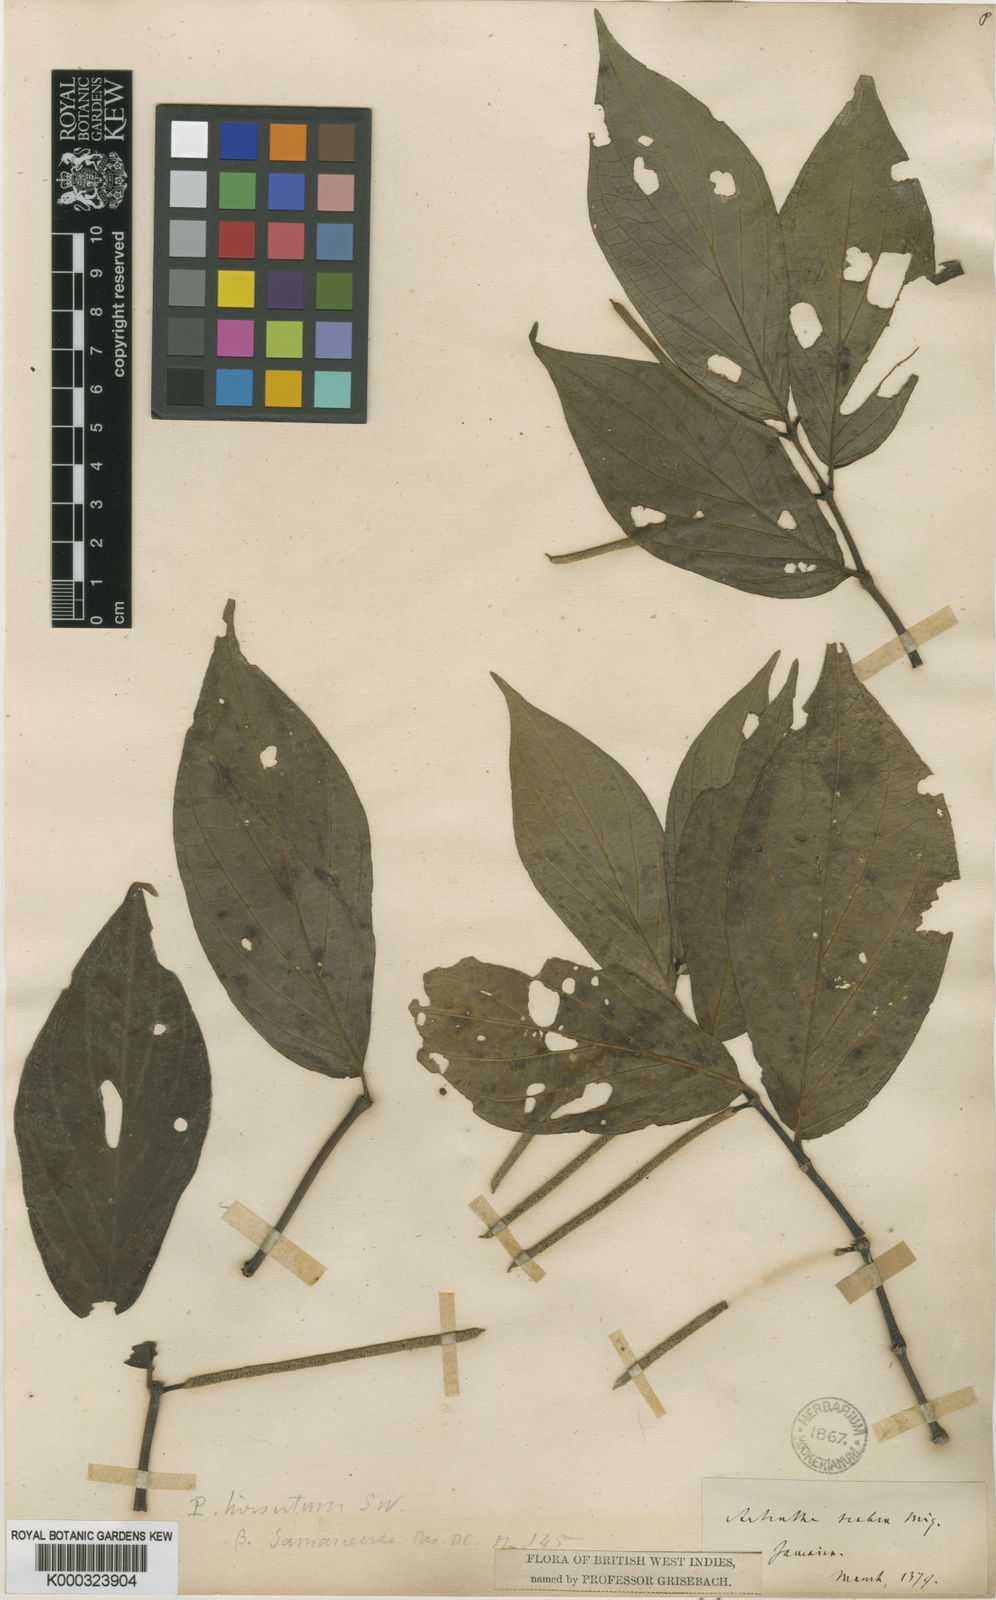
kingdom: Plantae
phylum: Tracheophyta
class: Magnoliopsida
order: Piperales
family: Piperaceae
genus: Piper
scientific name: Piper hispidum
